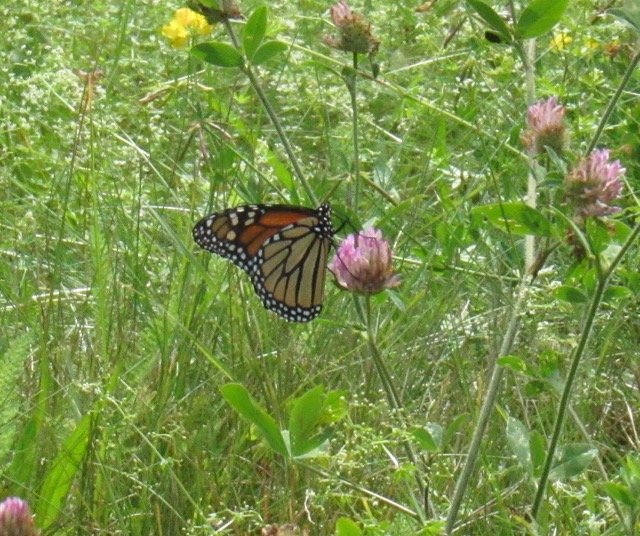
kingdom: Animalia
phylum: Arthropoda
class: Insecta
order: Lepidoptera
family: Nymphalidae
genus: Danaus
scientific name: Danaus plexippus
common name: Monarch
